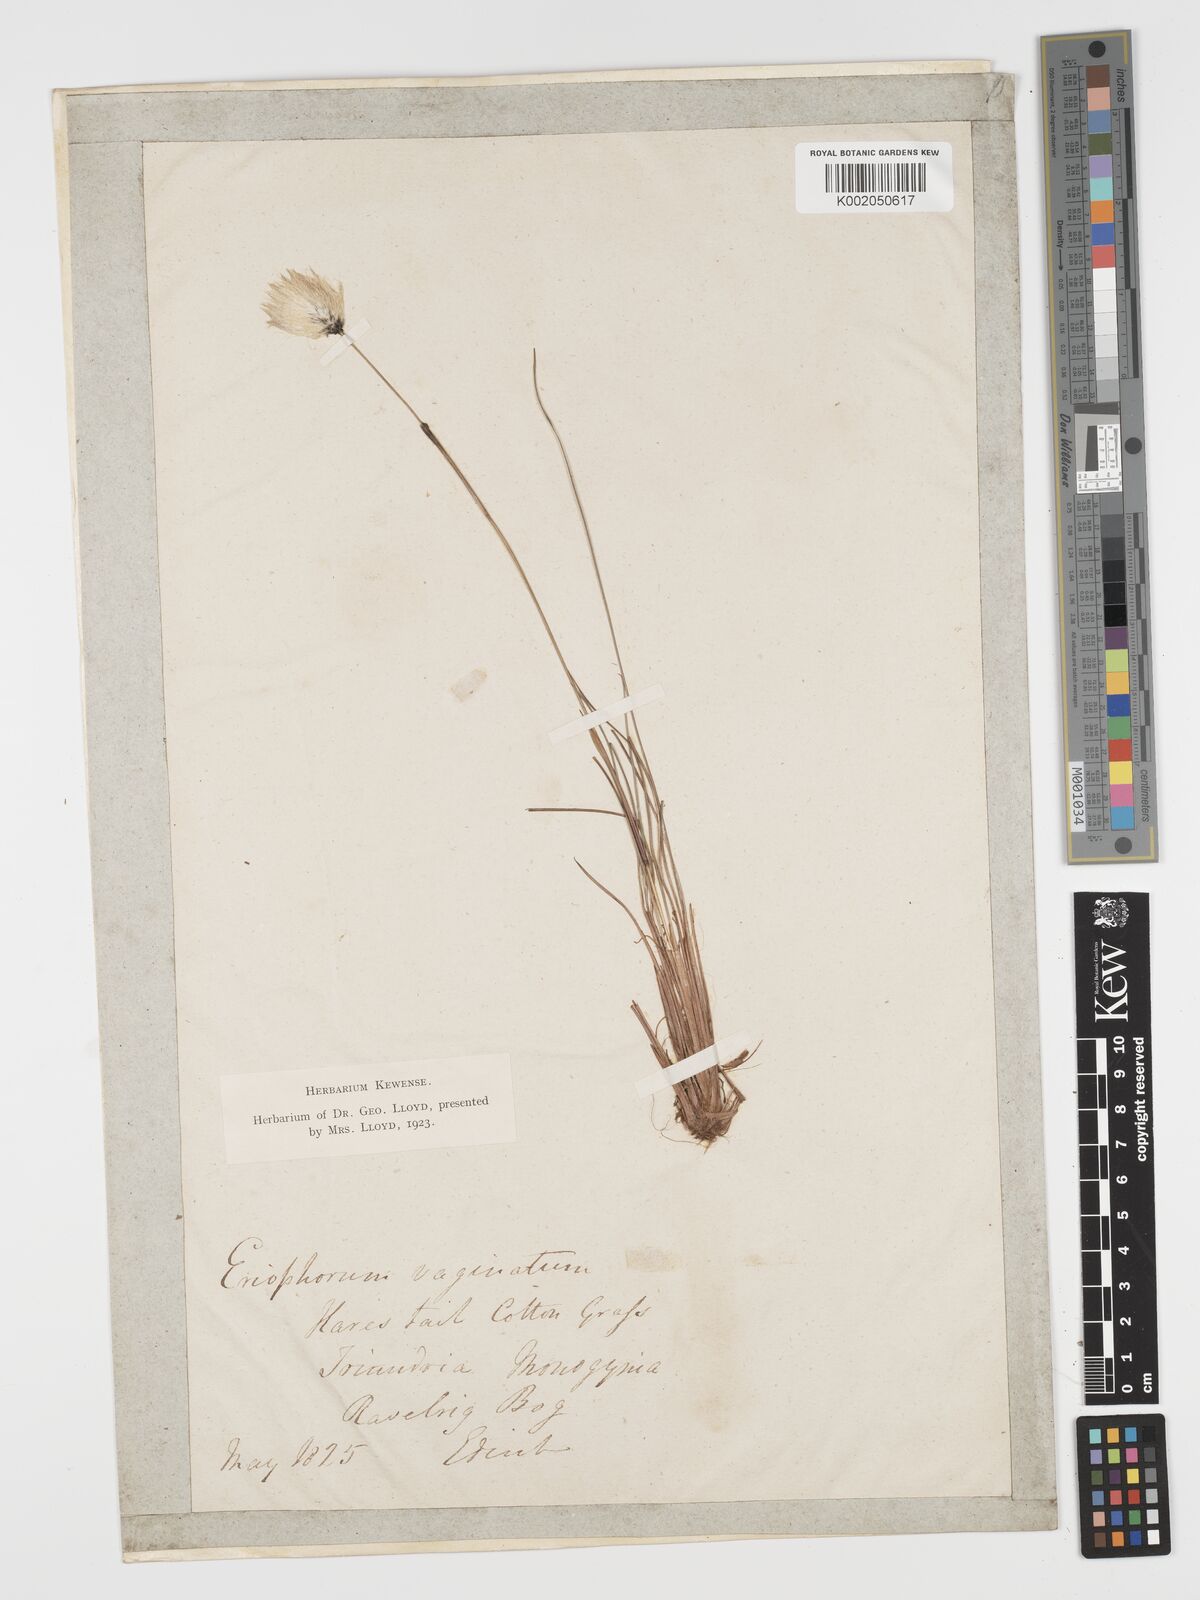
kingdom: Plantae
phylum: Tracheophyta
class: Liliopsida
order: Poales
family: Cyperaceae
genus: Eriophorum
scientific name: Eriophorum vaginatum
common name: Hare's-tail cottongrass
